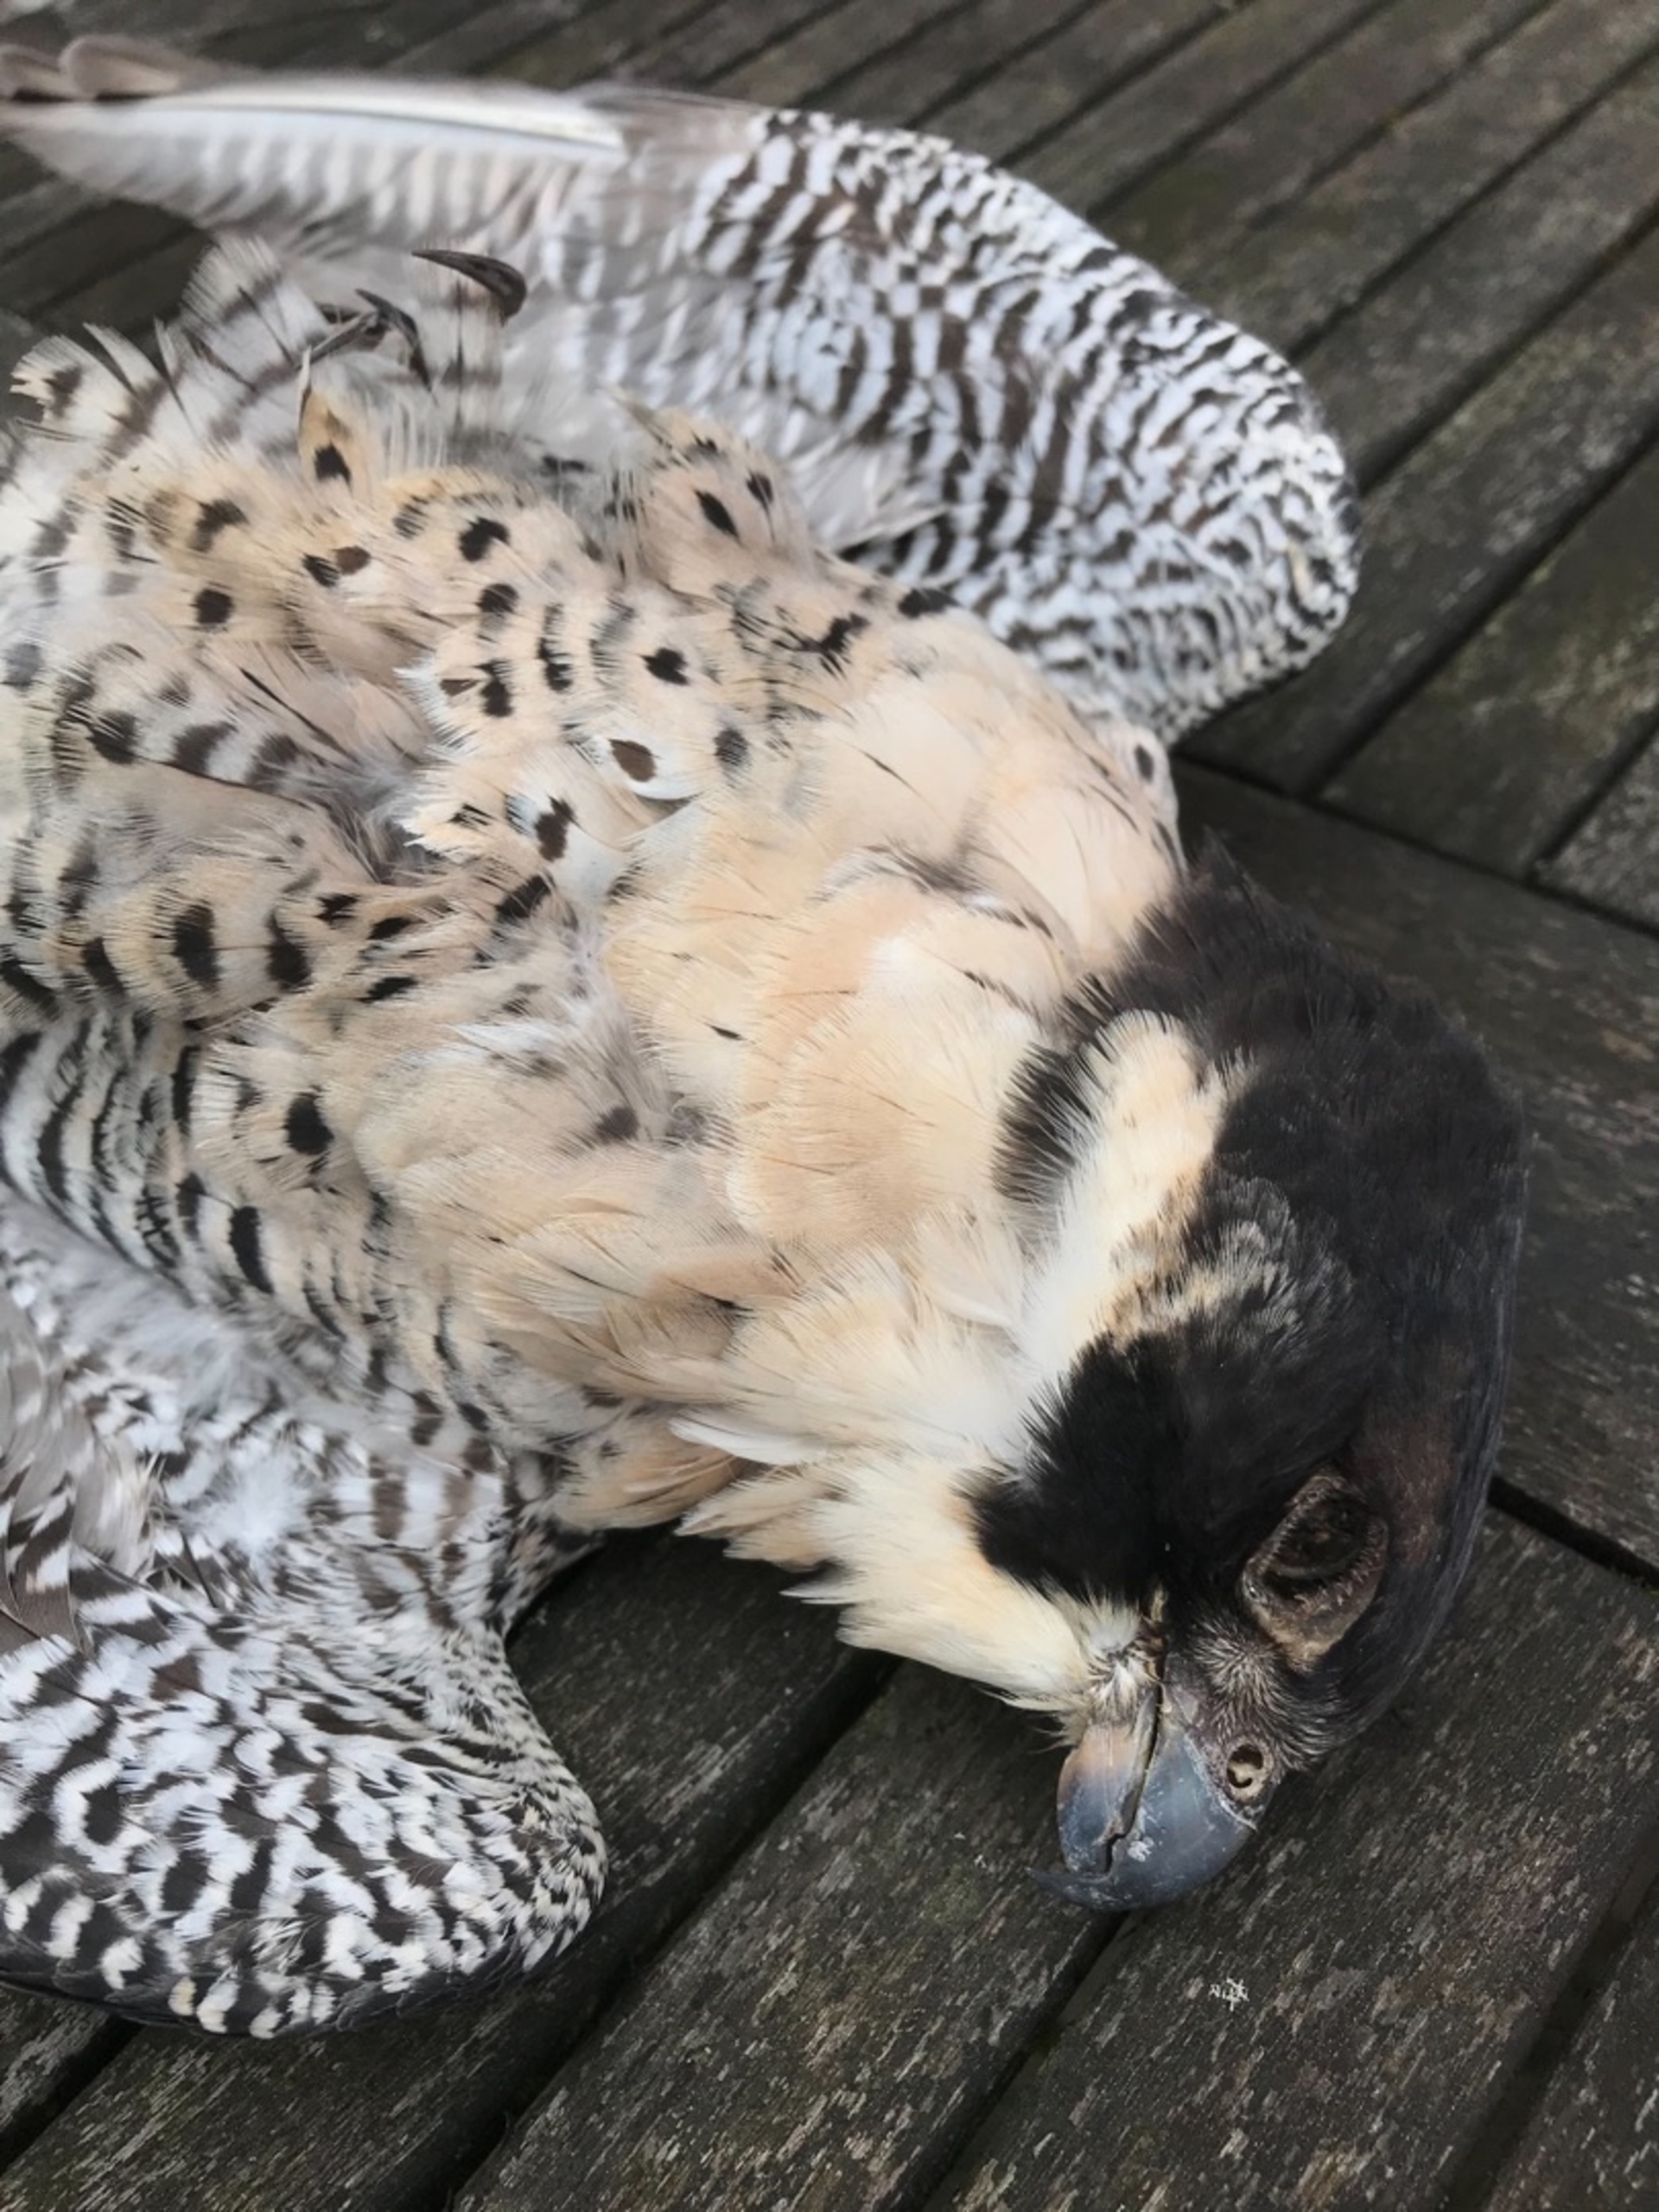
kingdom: Animalia
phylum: Chordata
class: Aves
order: Falconiformes
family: Falconidae
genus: Falco
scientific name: Falco peregrinus
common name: Vandrefalk
